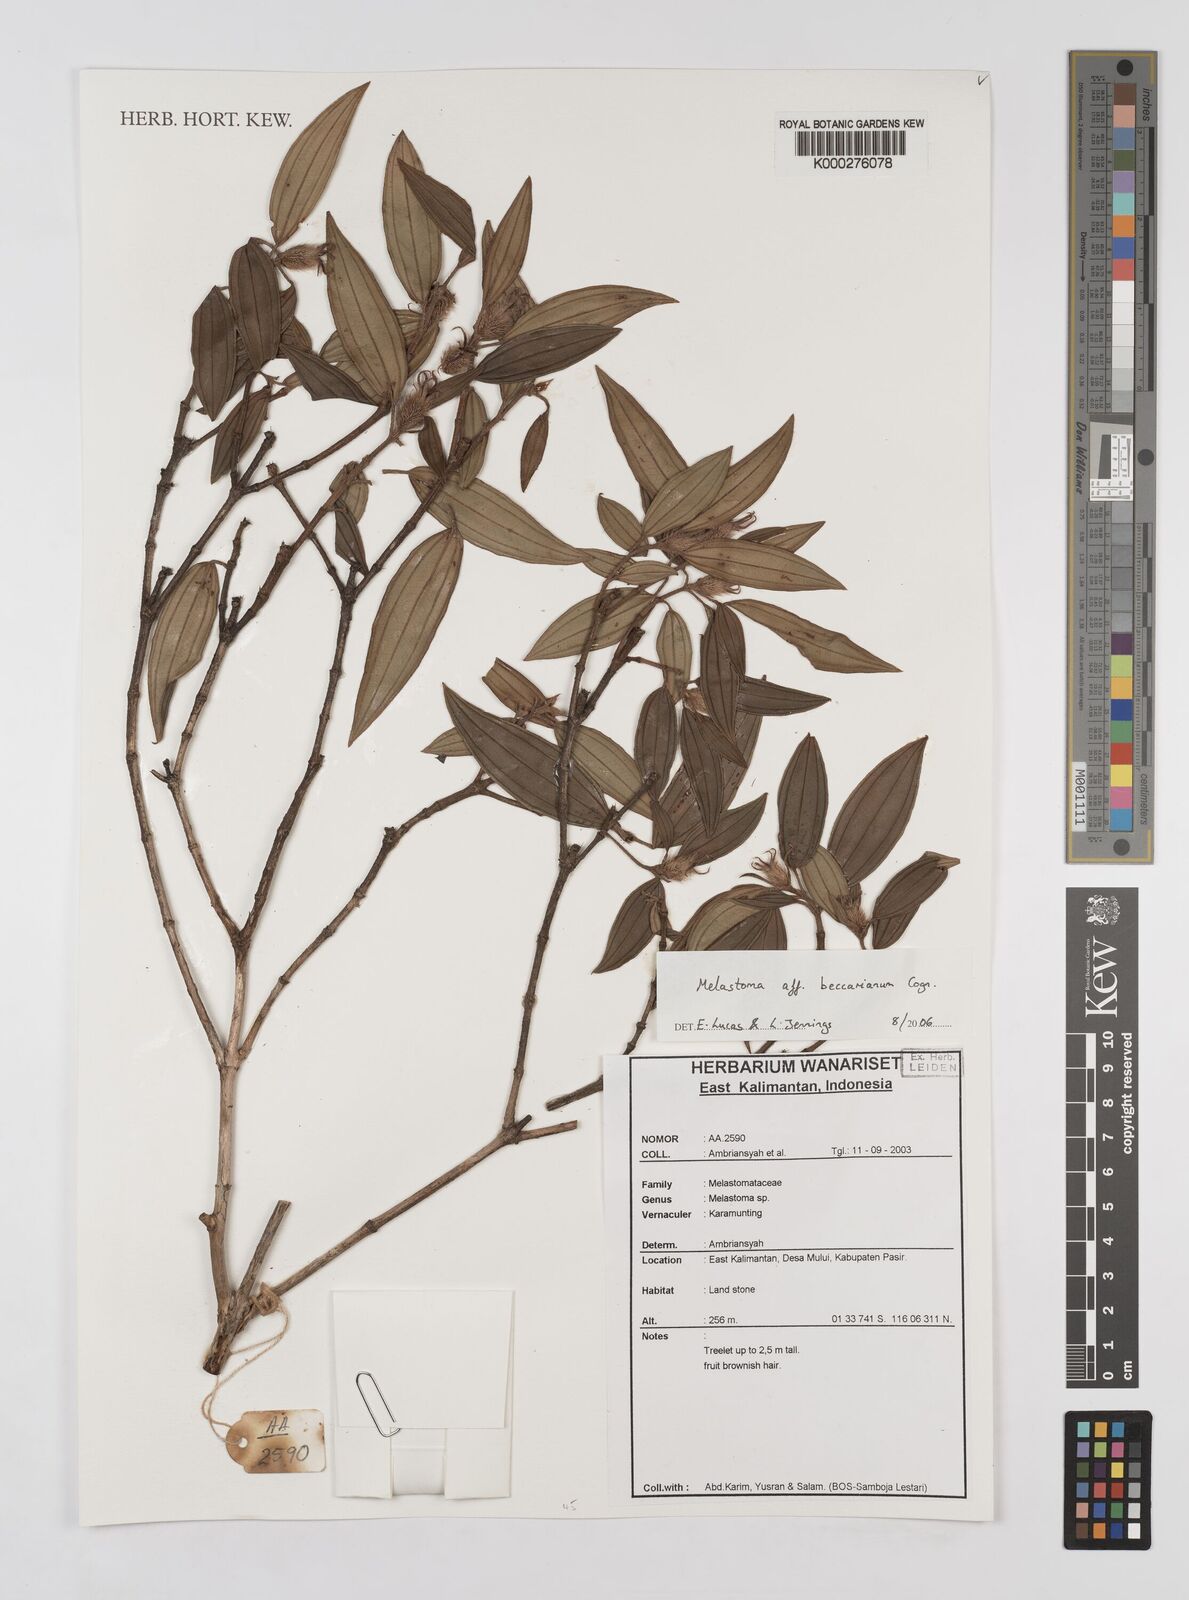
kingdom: Plantae
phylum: Tracheophyta
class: Magnoliopsida
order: Myrtales
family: Melastomataceae
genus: Melastoma
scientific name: Melastoma beccarianum
